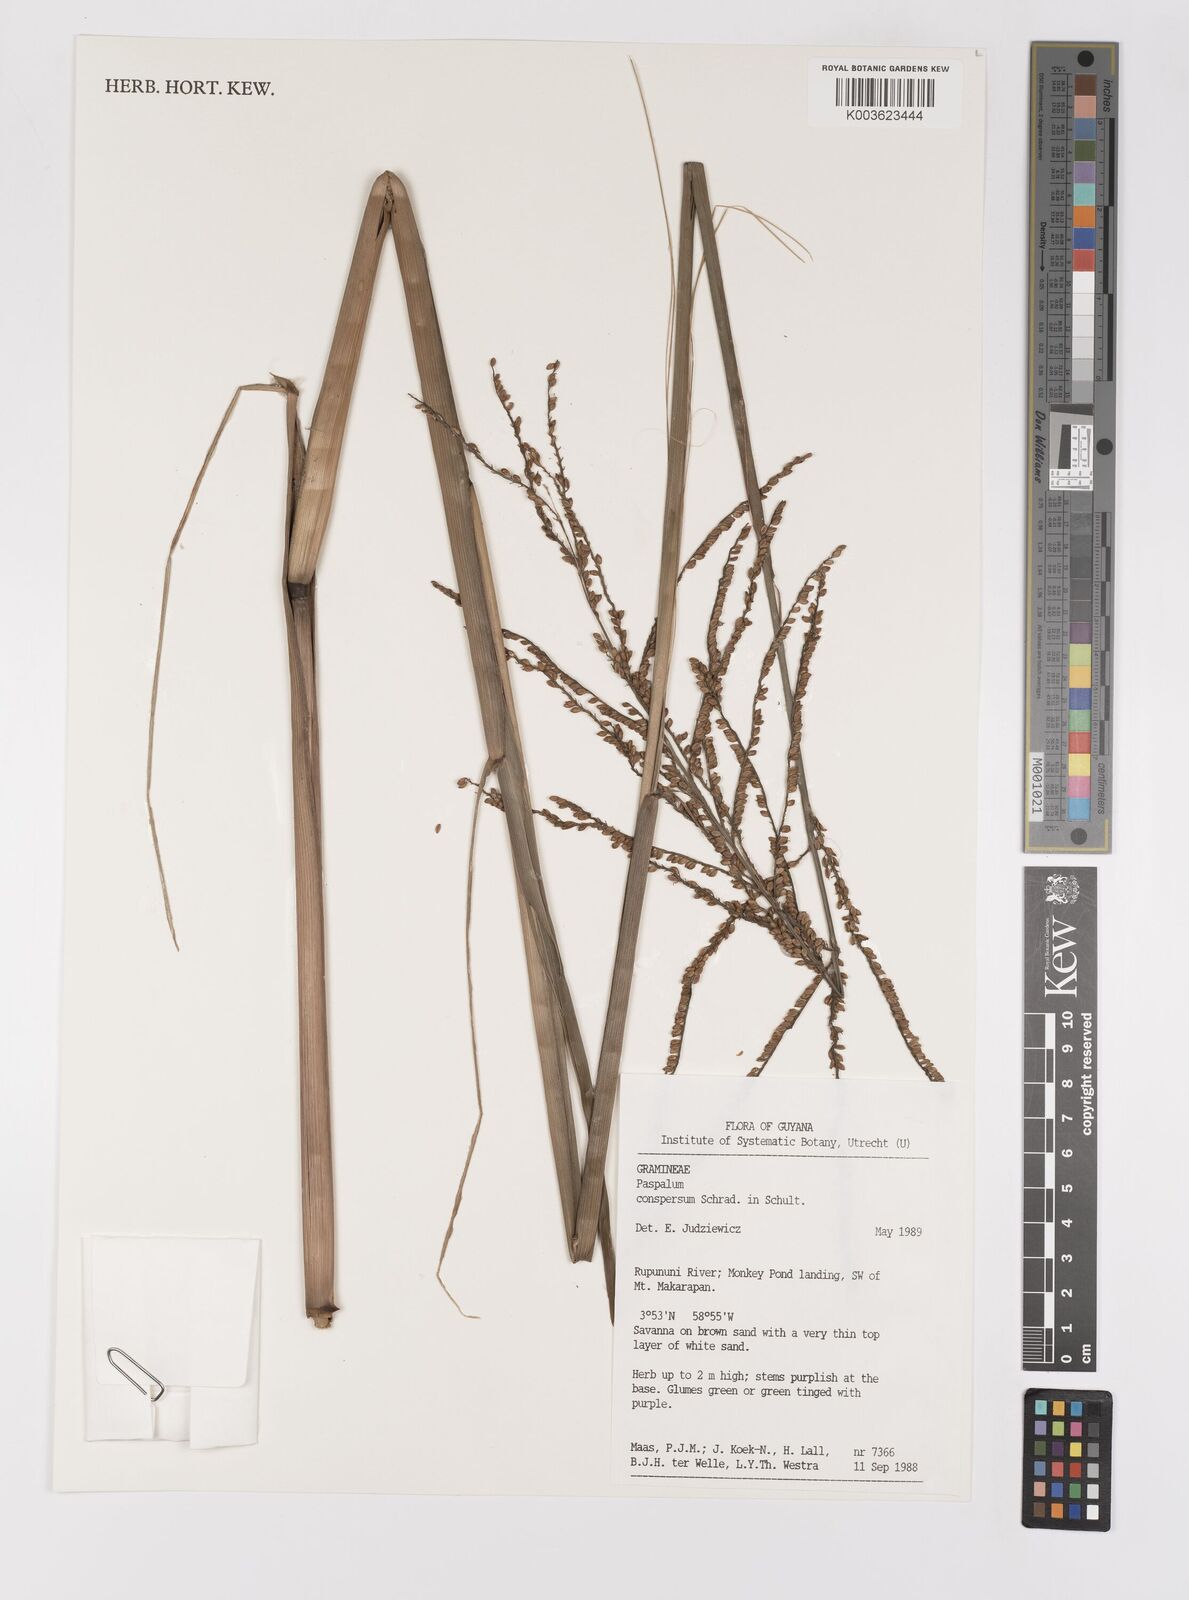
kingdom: Plantae
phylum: Tracheophyta
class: Liliopsida
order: Poales
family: Poaceae
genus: Paspalum
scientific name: Paspalum conspersum
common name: Scattered paspalum
